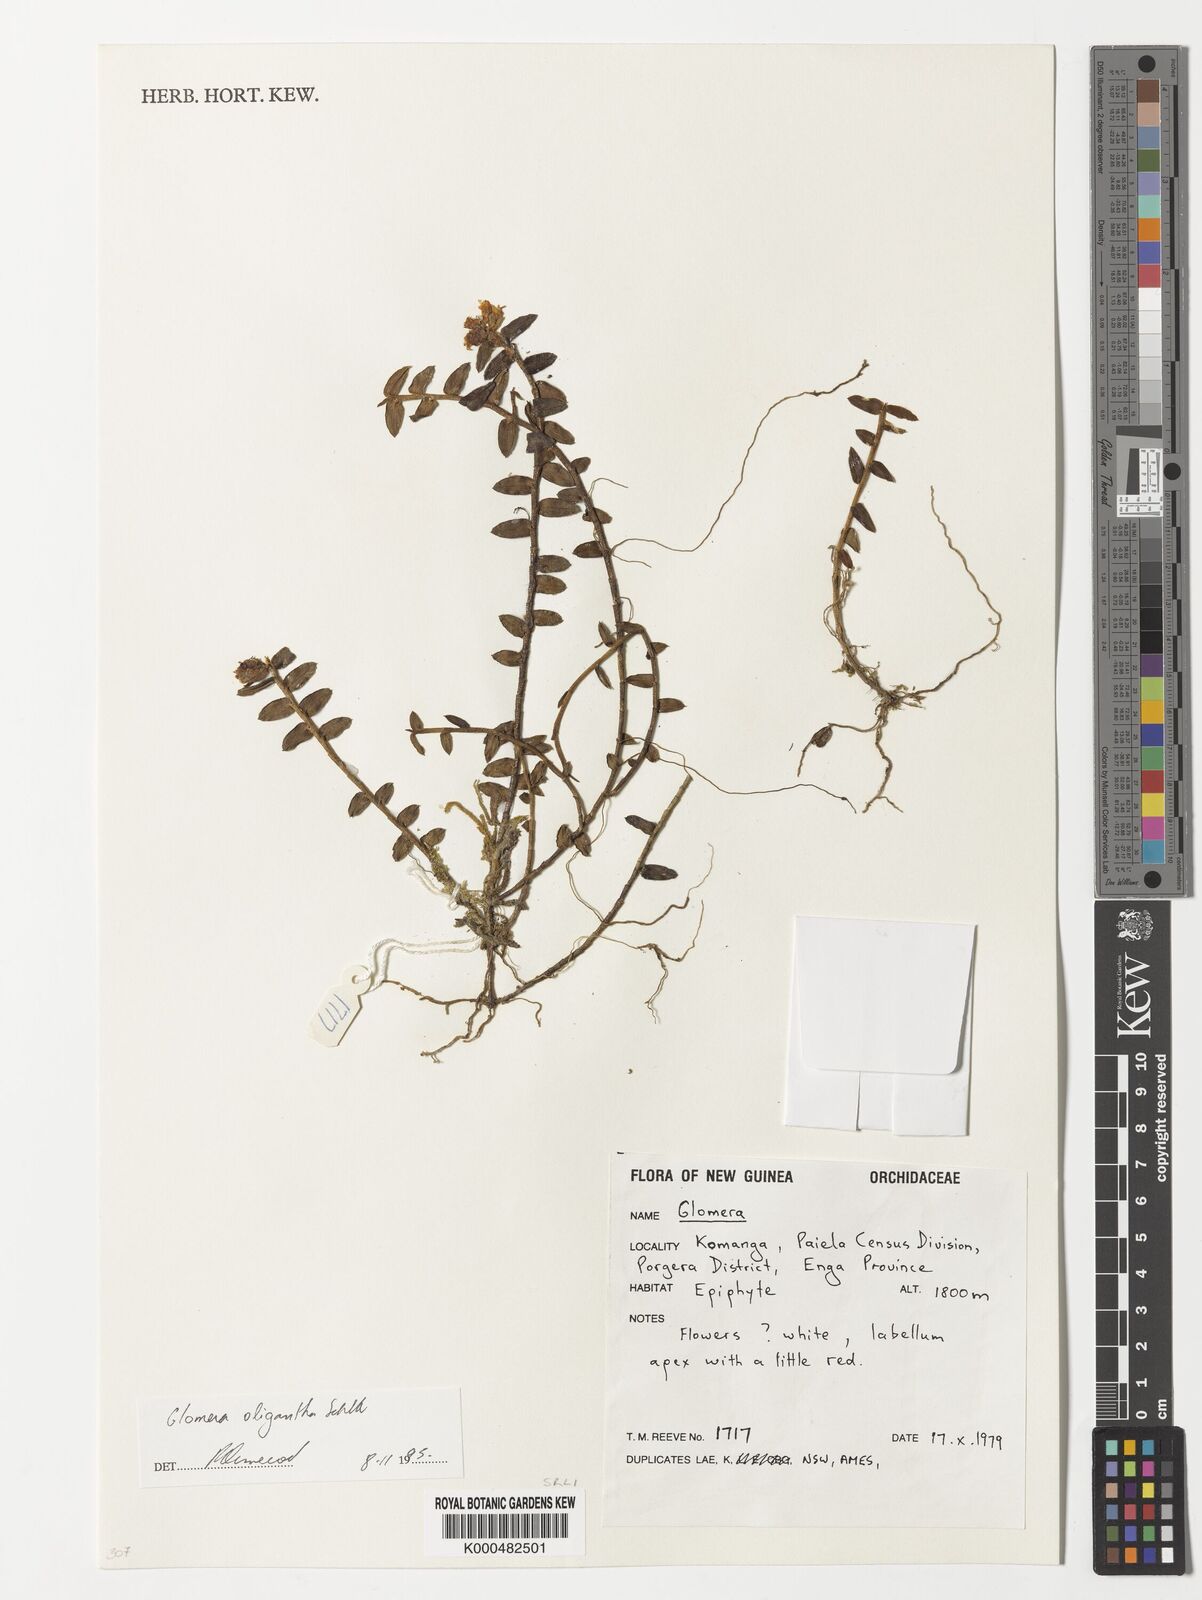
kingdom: Plantae
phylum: Tracheophyta
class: Liliopsida
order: Asparagales
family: Orchidaceae
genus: Glomera
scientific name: Glomera oligantha
